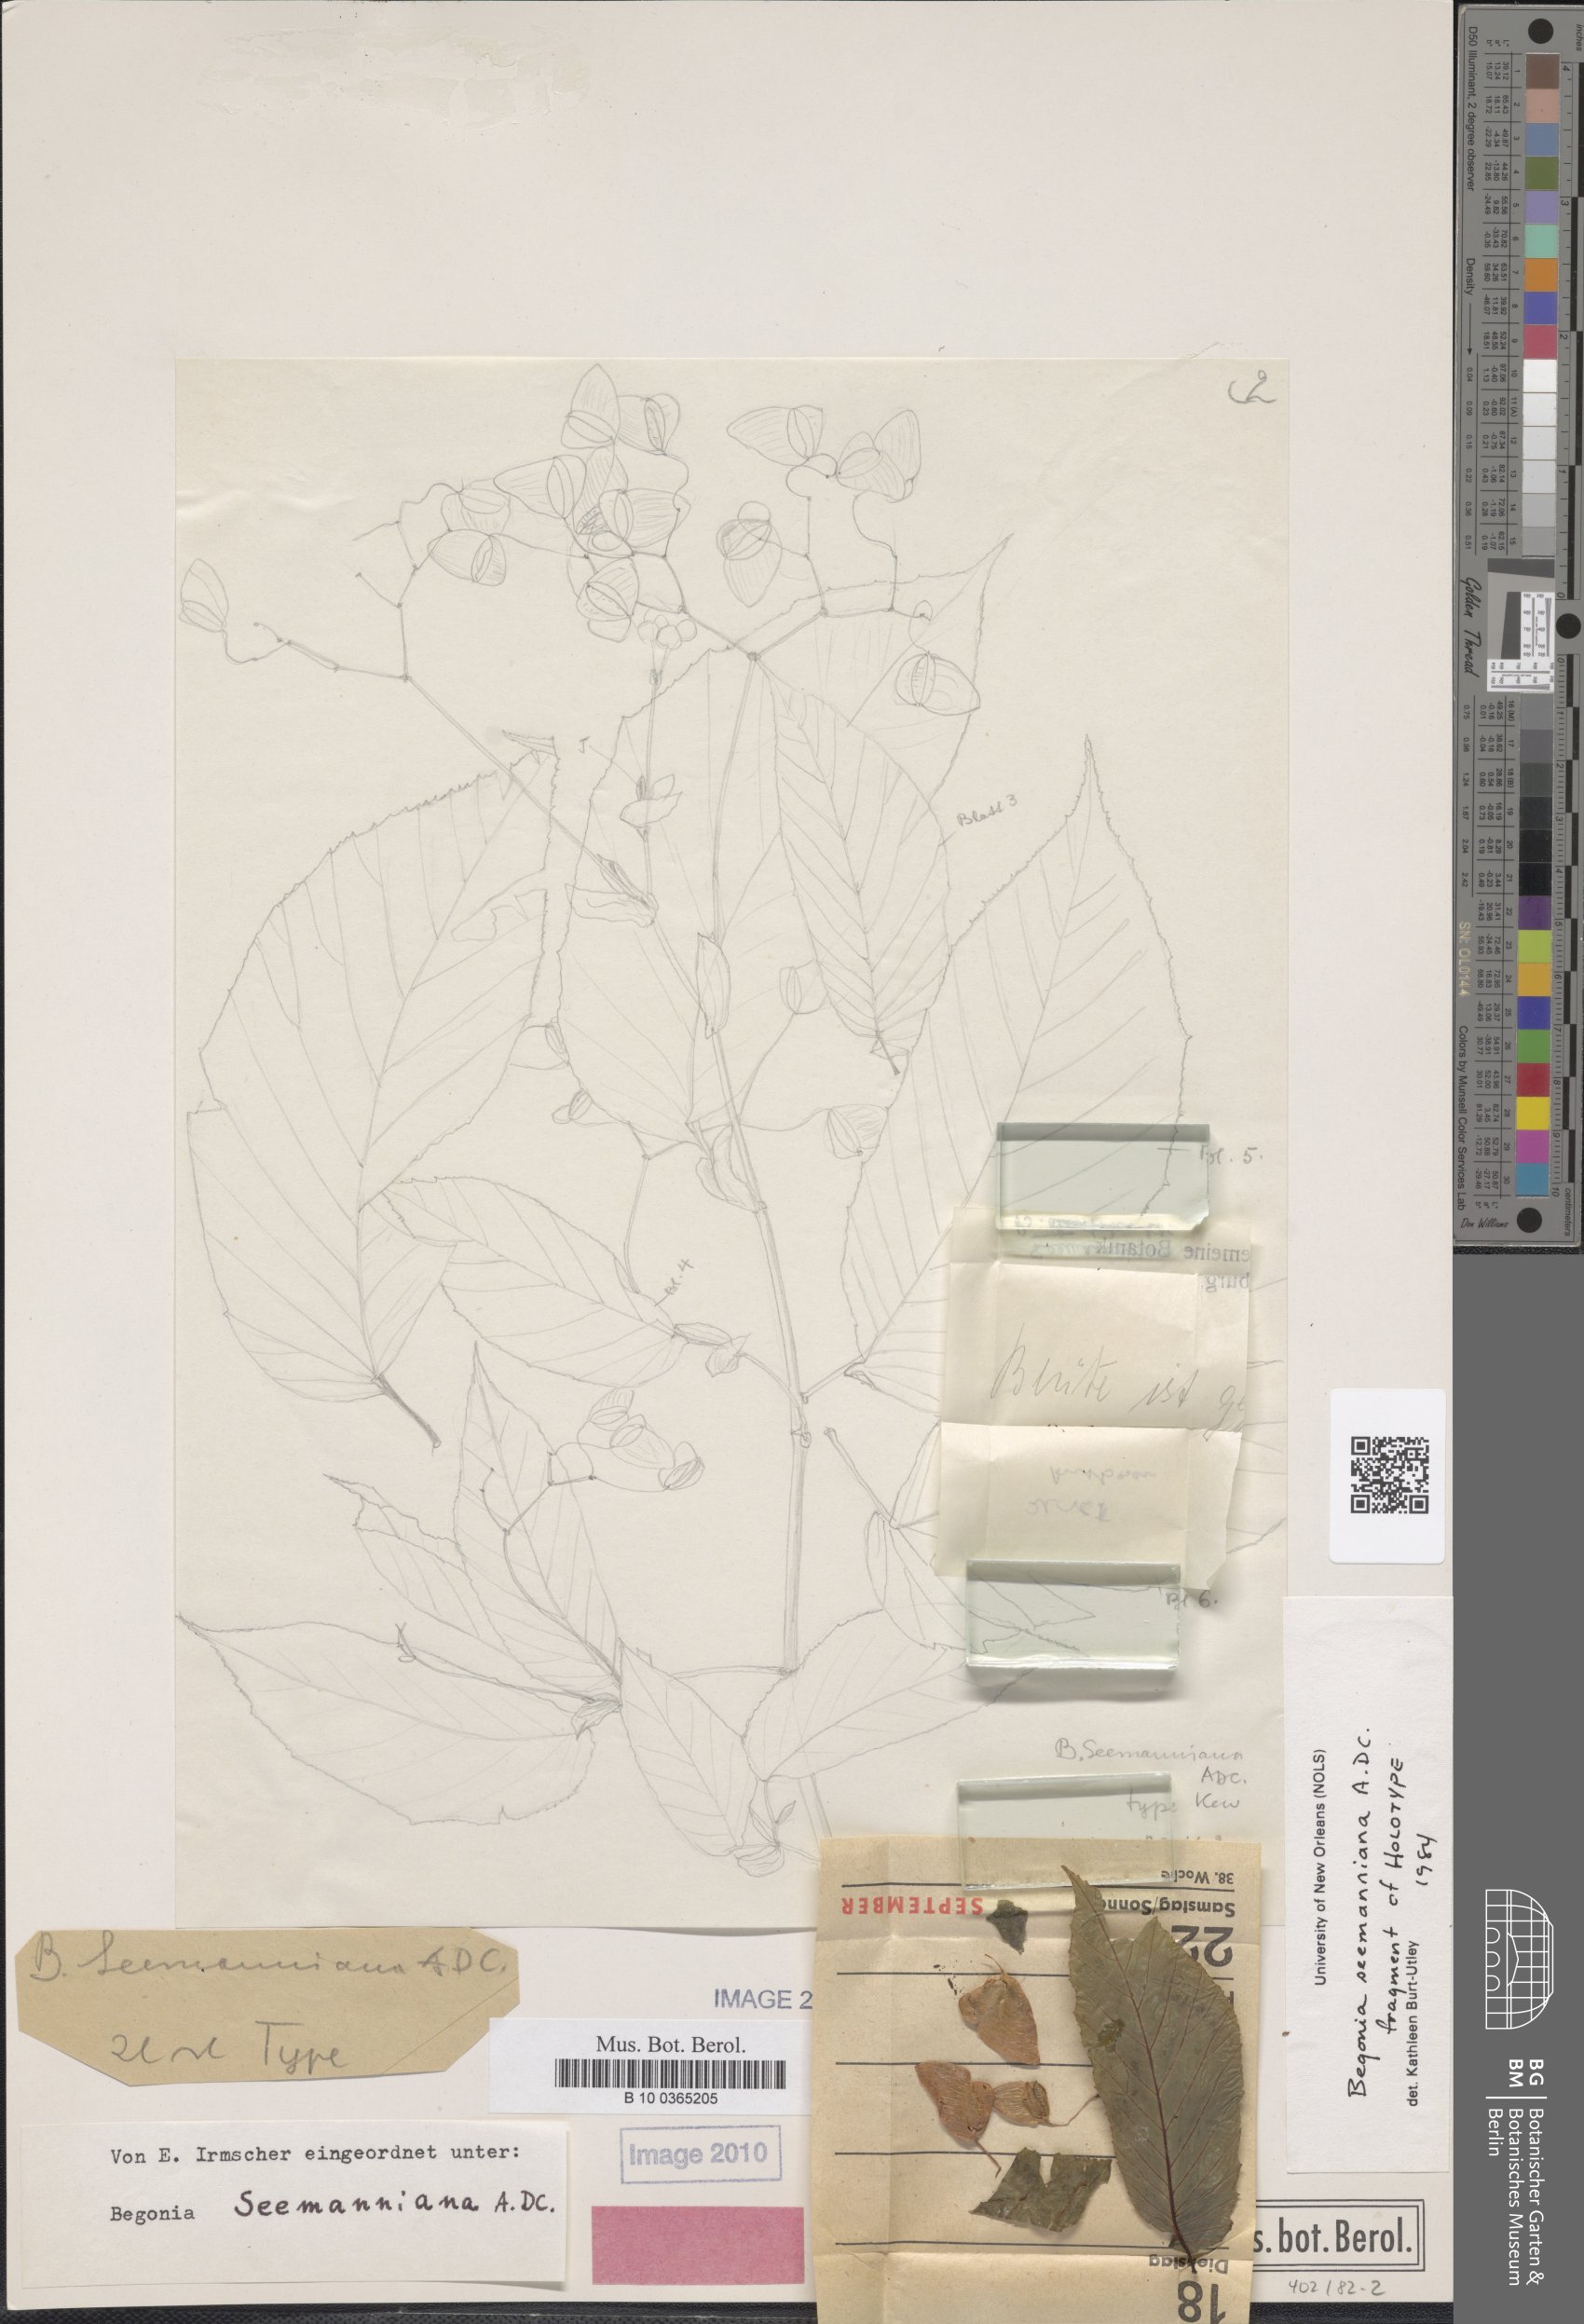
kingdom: Plantae
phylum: Tracheophyta
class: Magnoliopsida
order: Cucurbitales
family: Begoniaceae
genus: Begonia
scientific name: Begonia seemanniana
